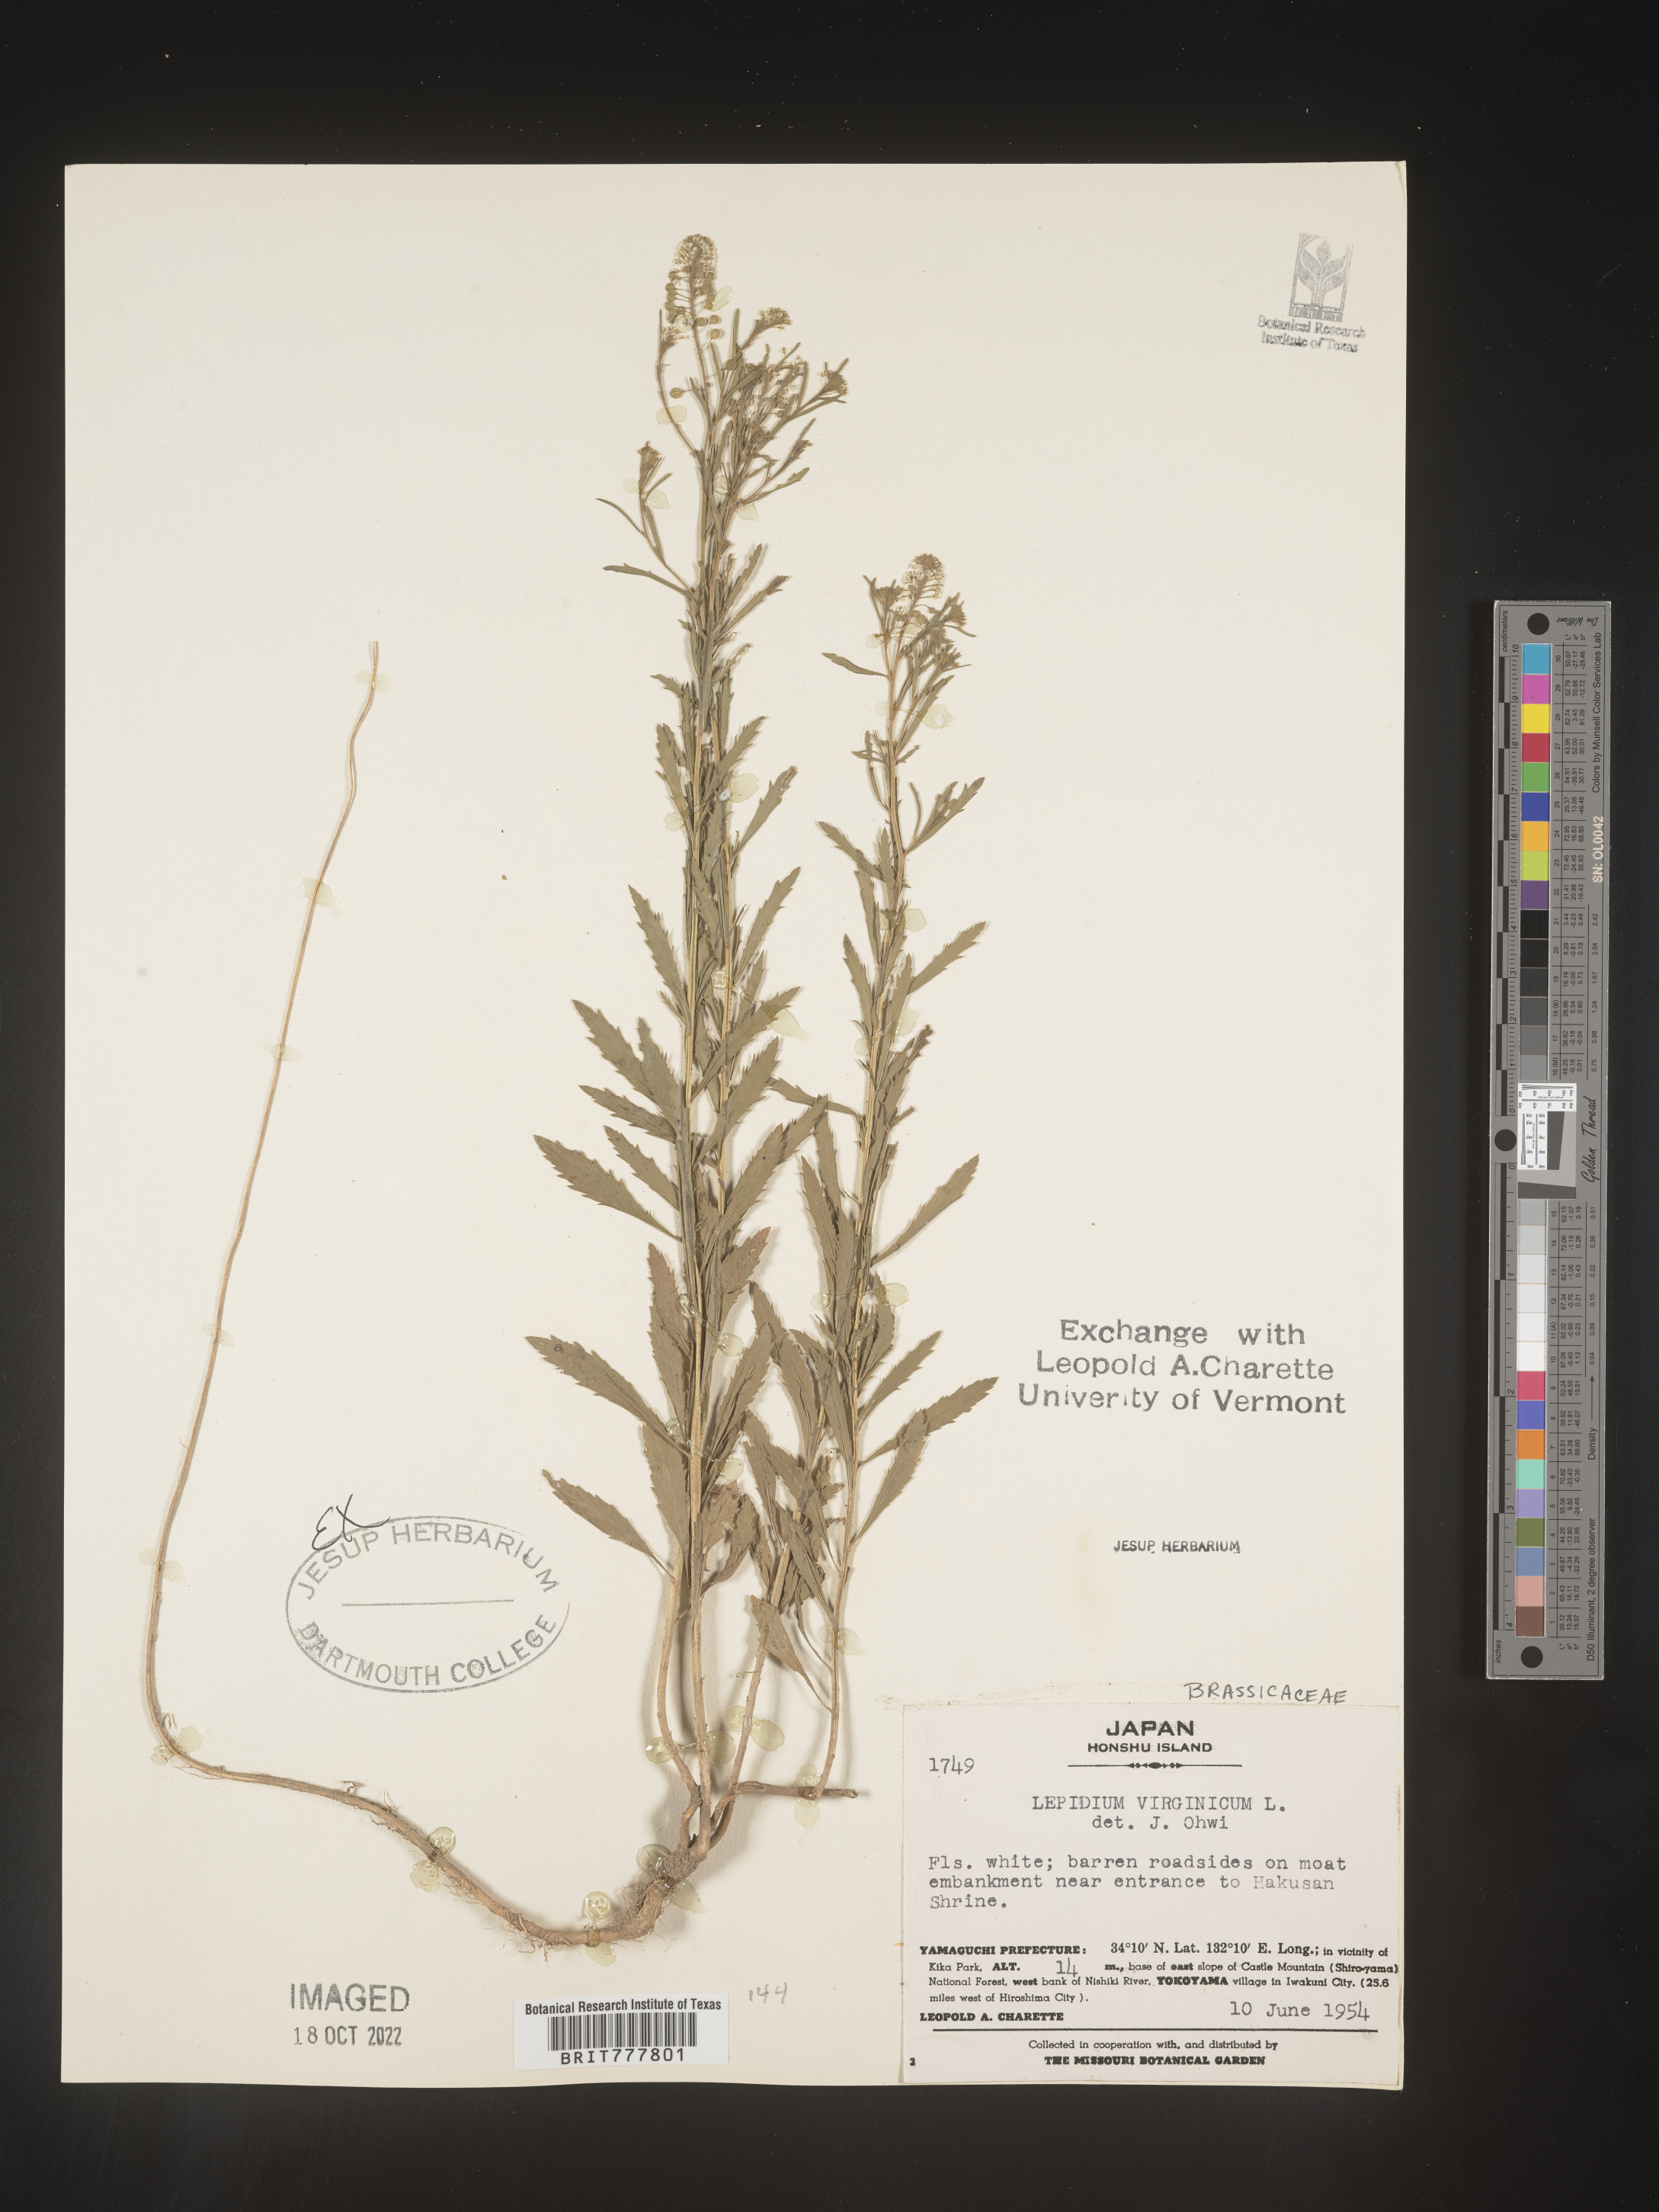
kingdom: Plantae
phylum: Tracheophyta
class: Magnoliopsida
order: Brassicales
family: Brassicaceae
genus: Lepidium
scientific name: Lepidium virginicum
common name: Least pepperwort
